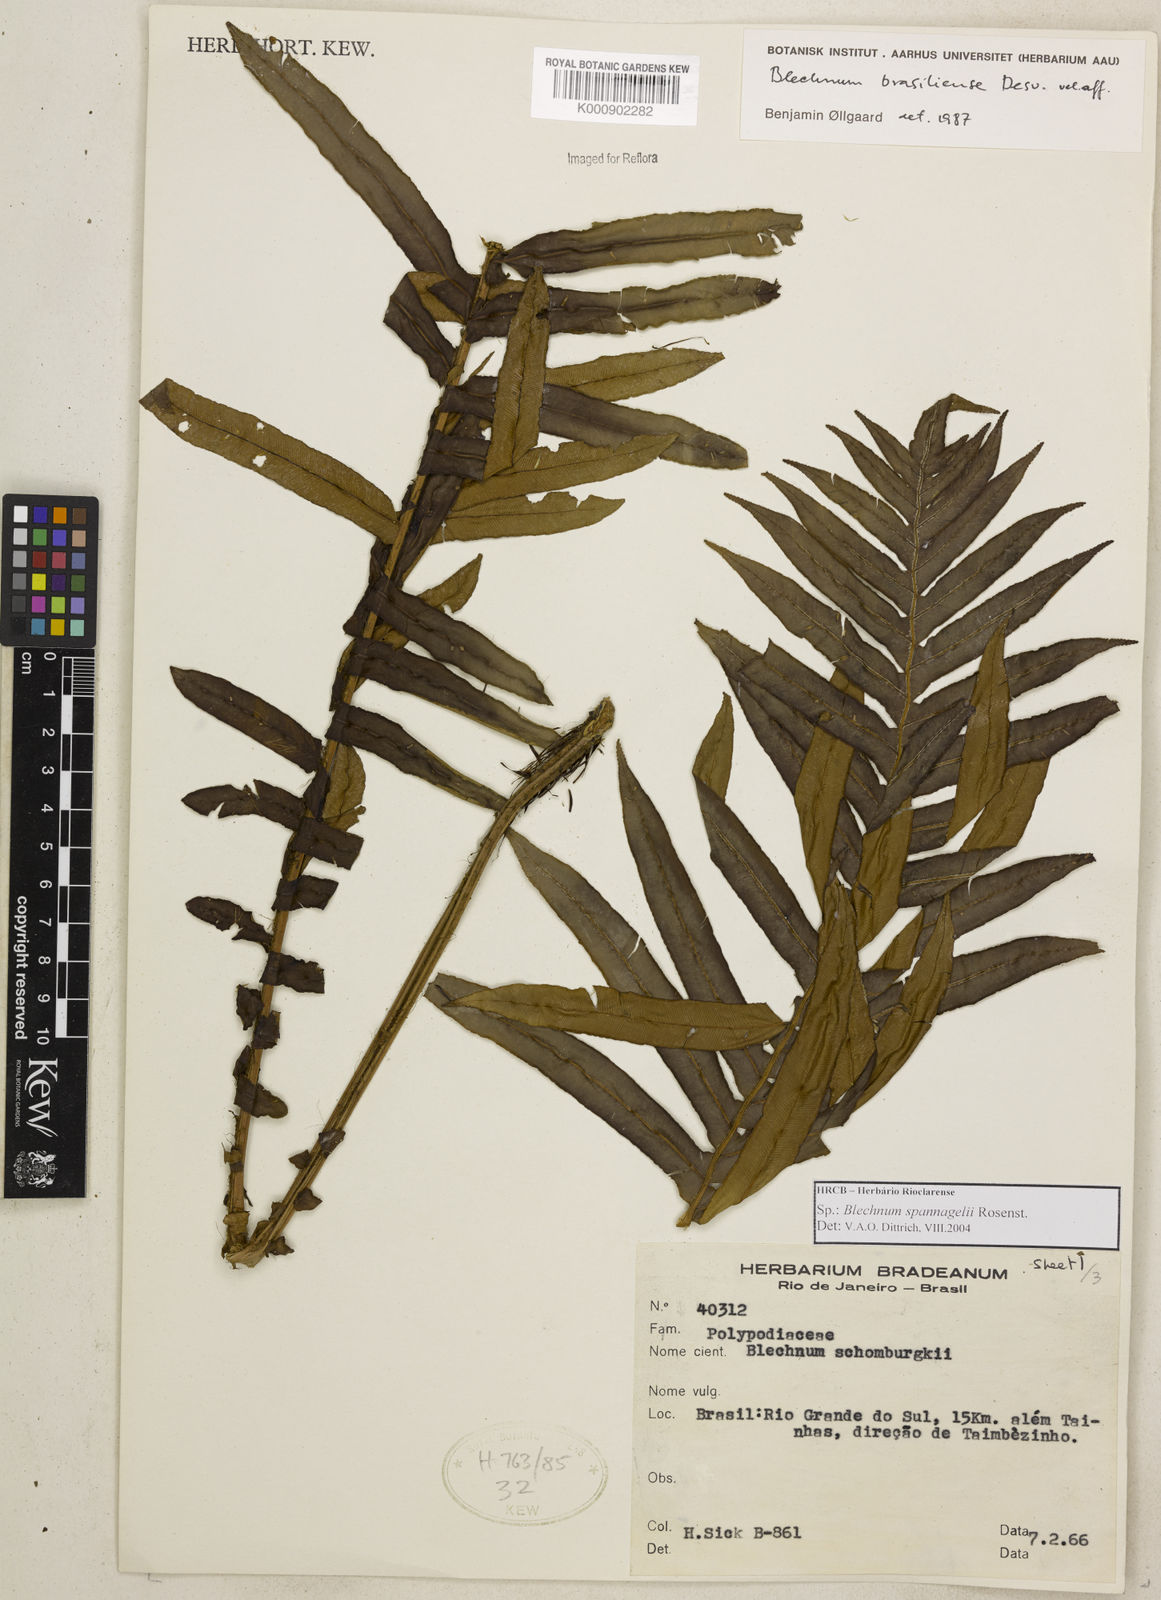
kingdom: Plantae
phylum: Tracheophyta
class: Polypodiopsida
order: Polypodiales
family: Blechnaceae
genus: Lomaria
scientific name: Lomaria spannagelii
